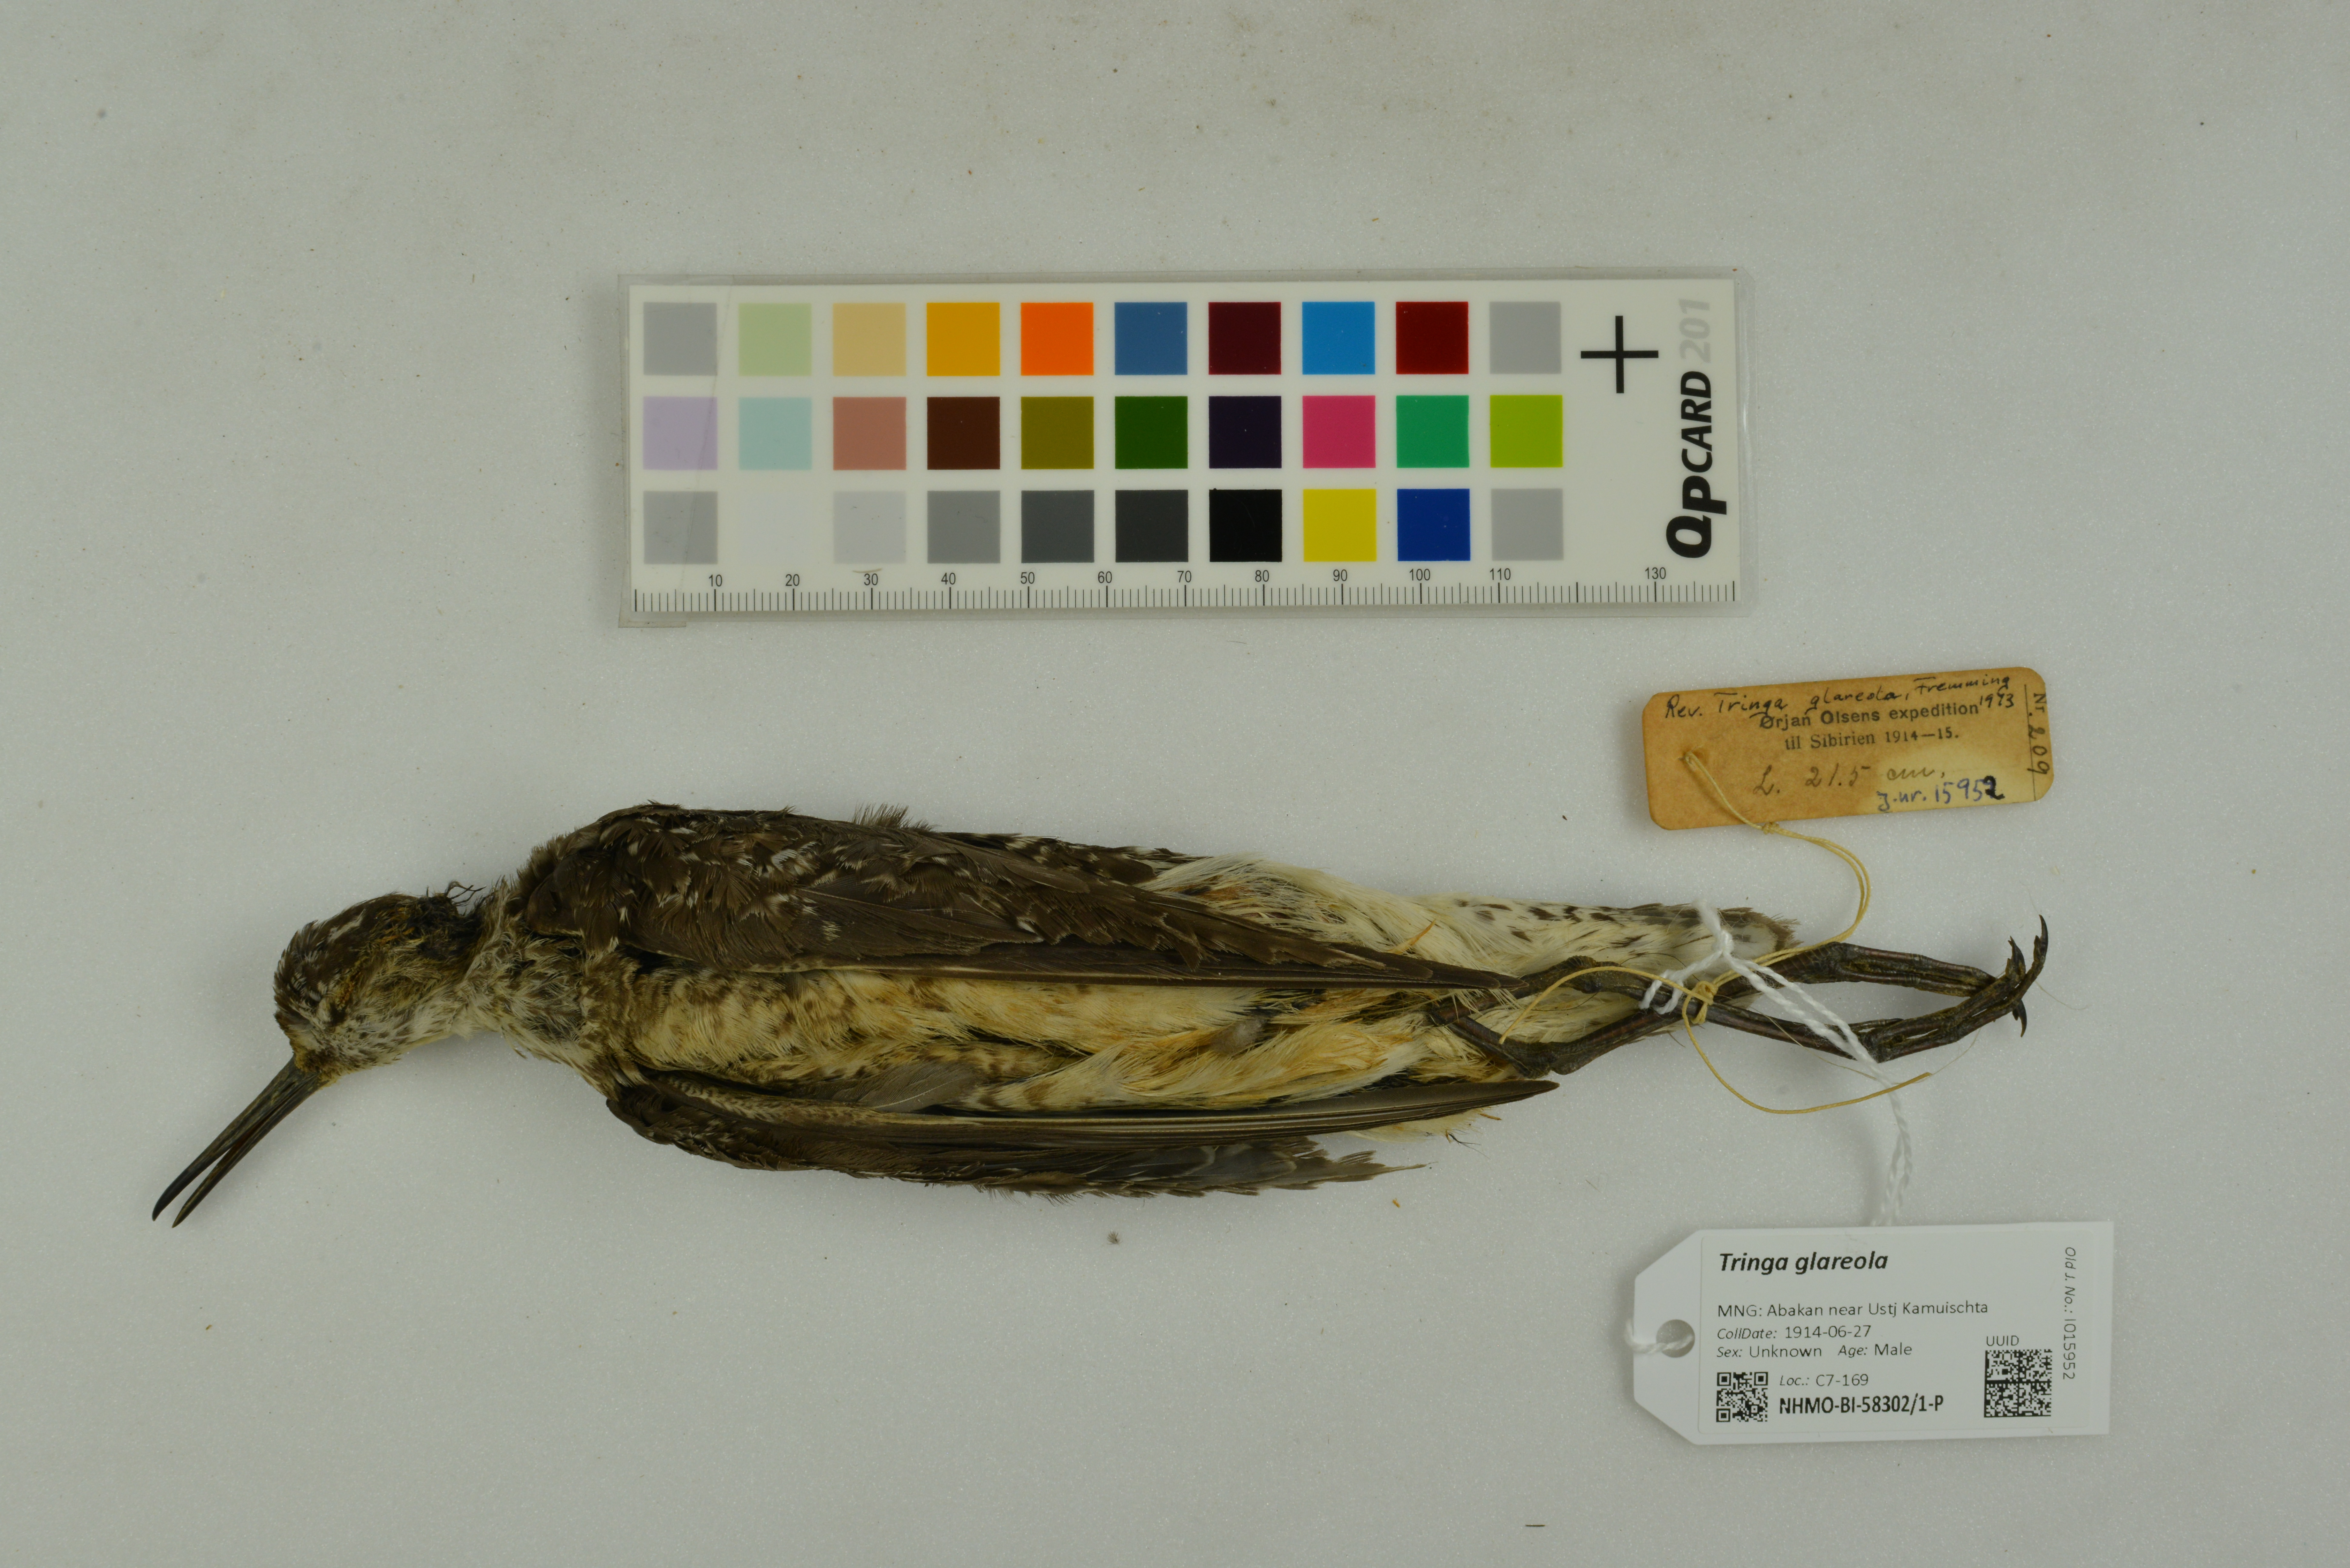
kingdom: Animalia
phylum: Chordata
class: Aves
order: Charadriiformes
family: Scolopacidae
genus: Tringa
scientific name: Tringa glareola
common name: Wood sandpiper
